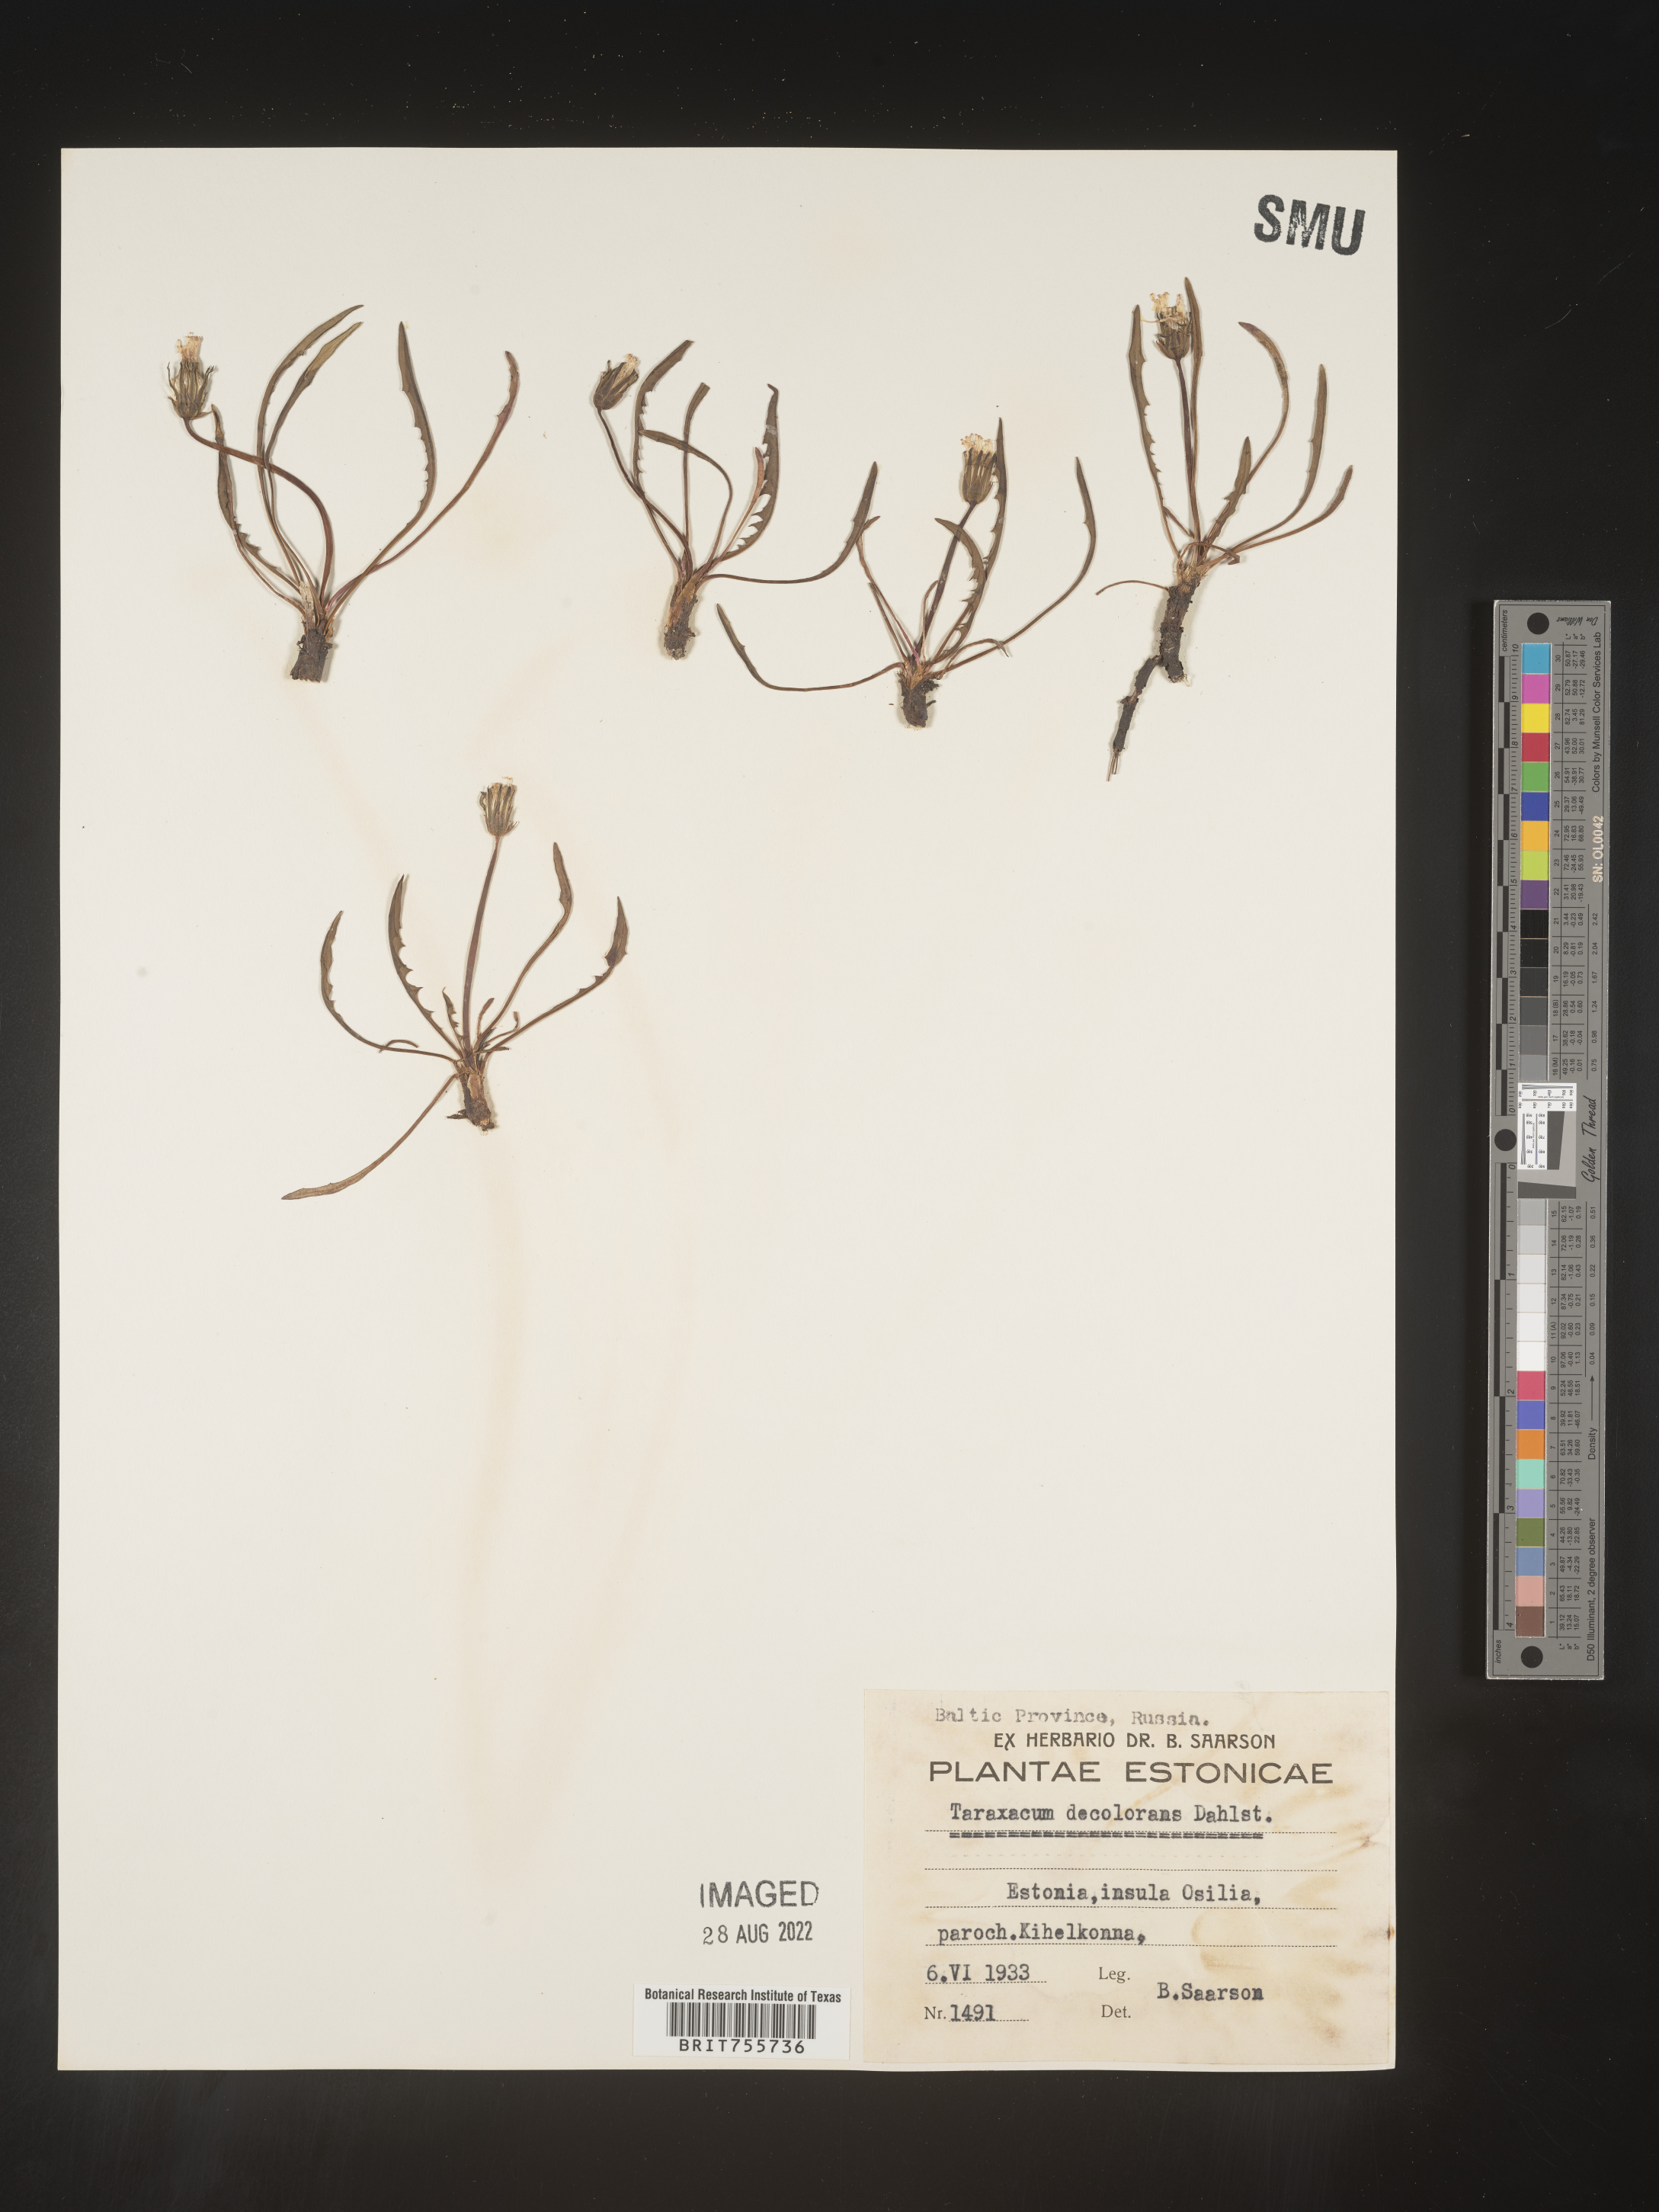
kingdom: Plantae
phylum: Tracheophyta
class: Magnoliopsida
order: Asterales
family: Asteraceae
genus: Taraxacum
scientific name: Taraxacum
